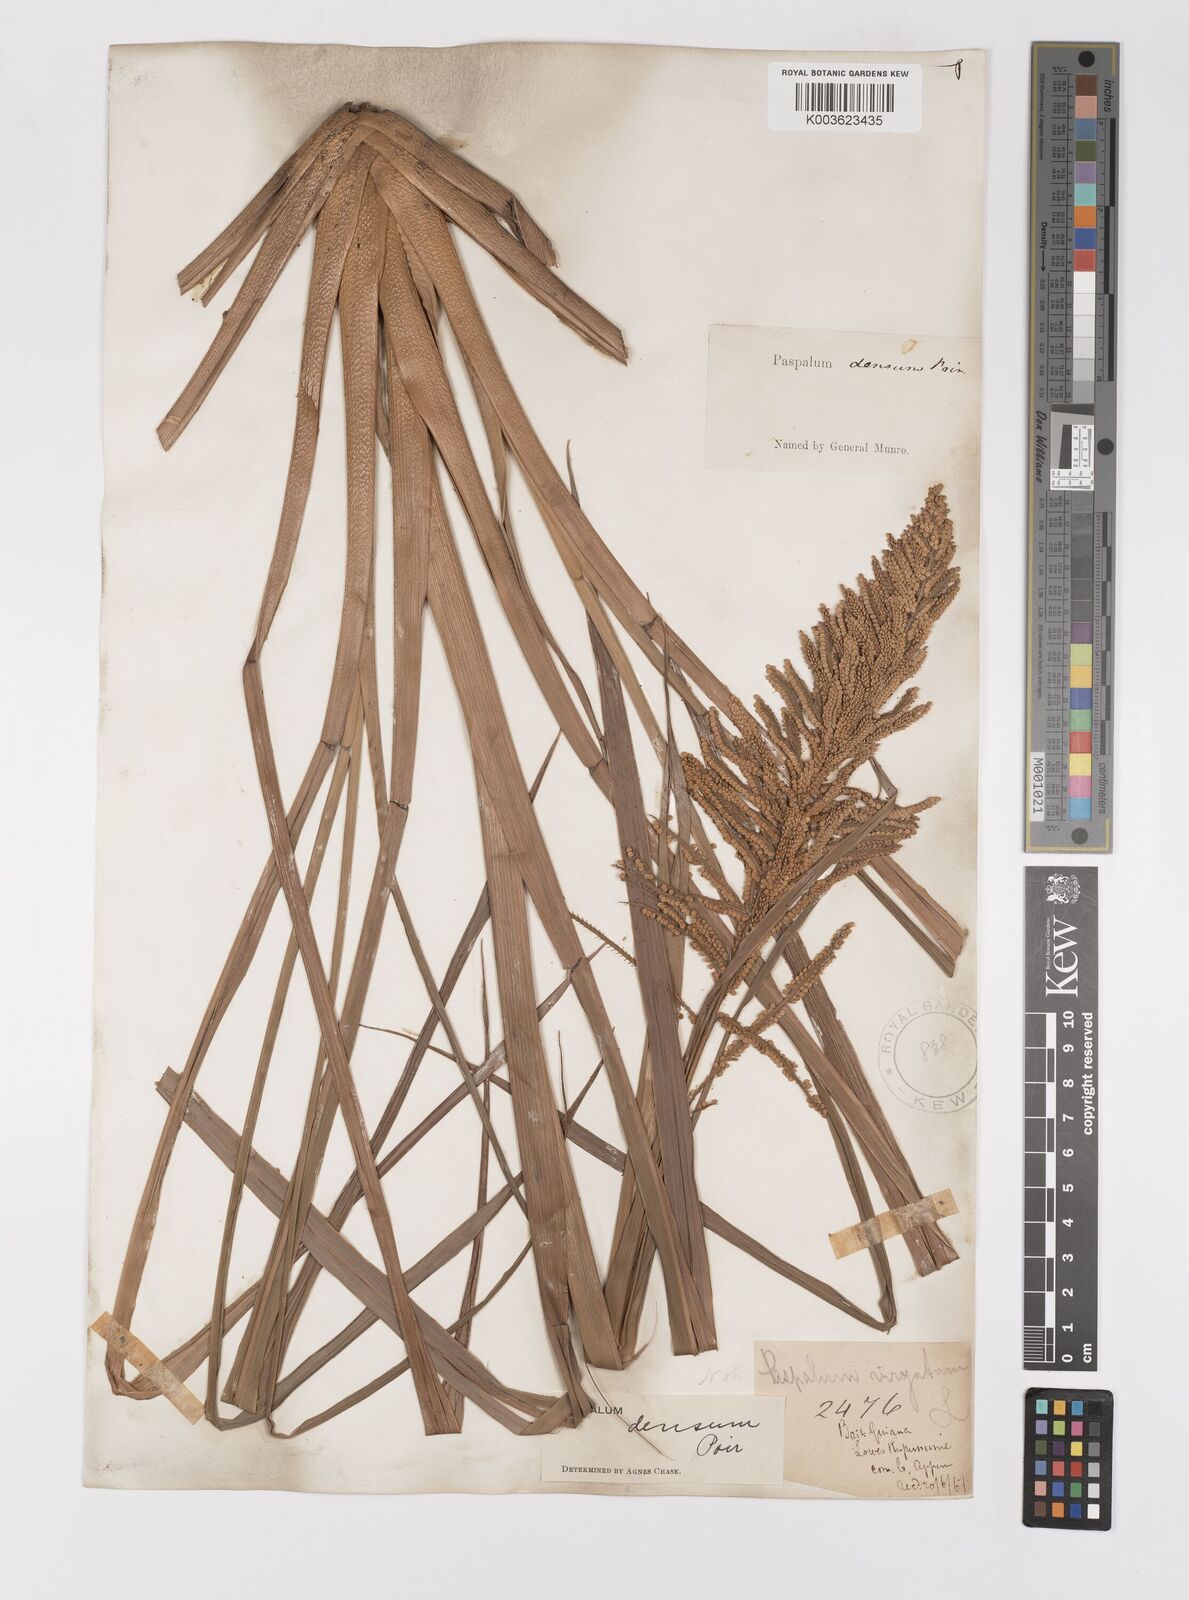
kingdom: Plantae
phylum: Tracheophyta
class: Liliopsida
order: Poales
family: Poaceae
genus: Paspalum
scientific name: Paspalum densum
